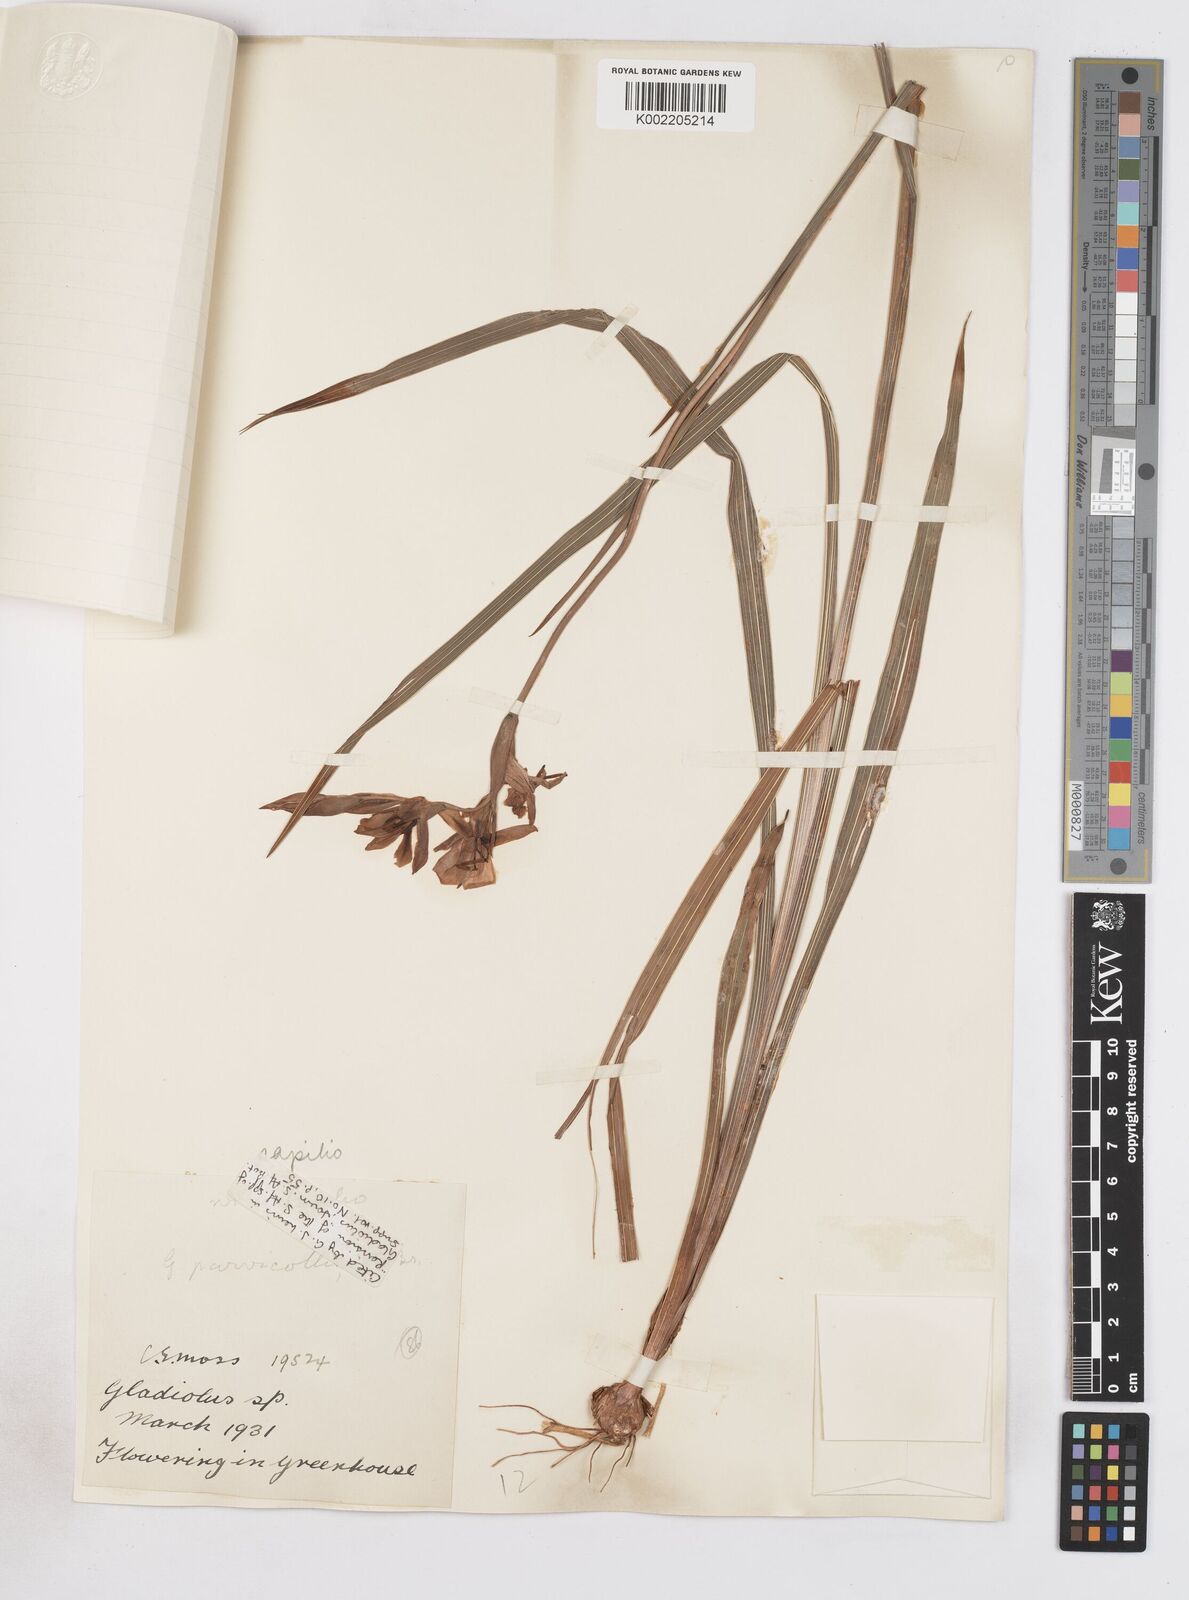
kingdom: Plantae
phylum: Tracheophyta
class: Liliopsida
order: Asparagales
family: Iridaceae
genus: Gladiolus
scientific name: Gladiolus papilio
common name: Goldblotch gladiolus
